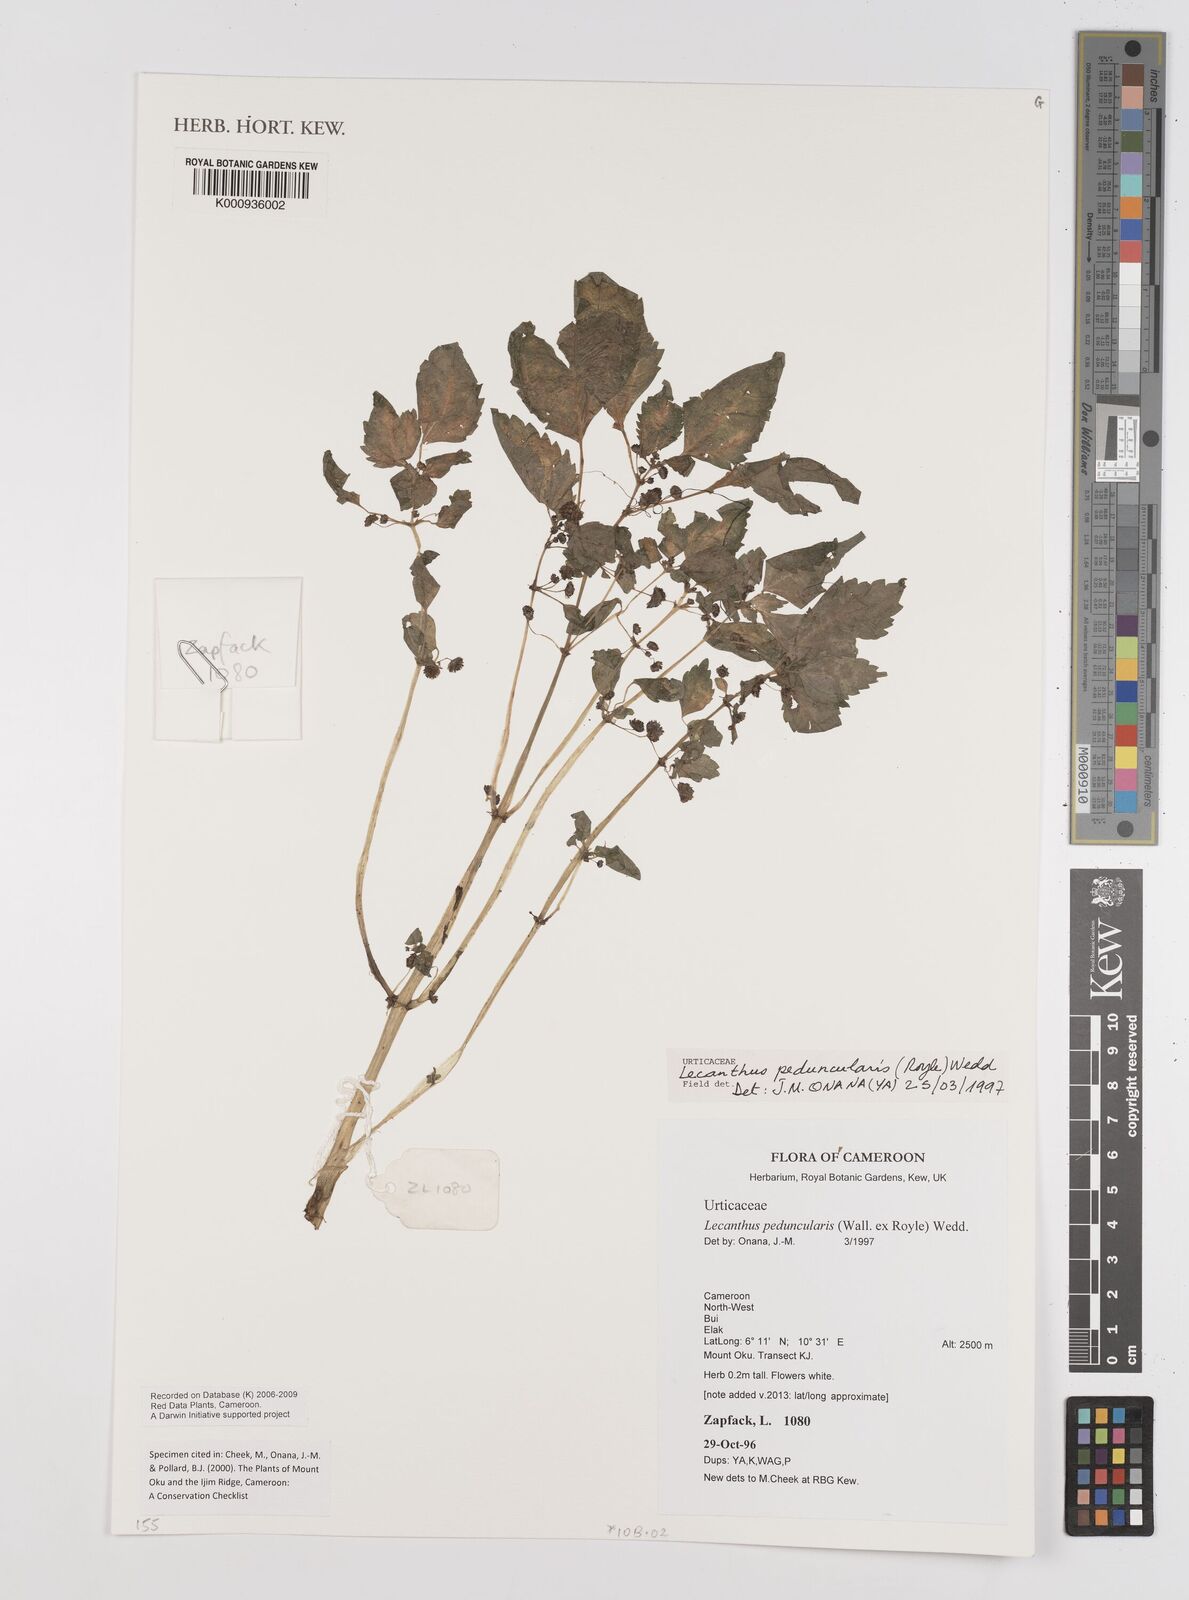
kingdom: Plantae
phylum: Tracheophyta
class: Magnoliopsida
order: Rosales
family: Urticaceae
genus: Lecanthus
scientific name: Lecanthus peduncularis
